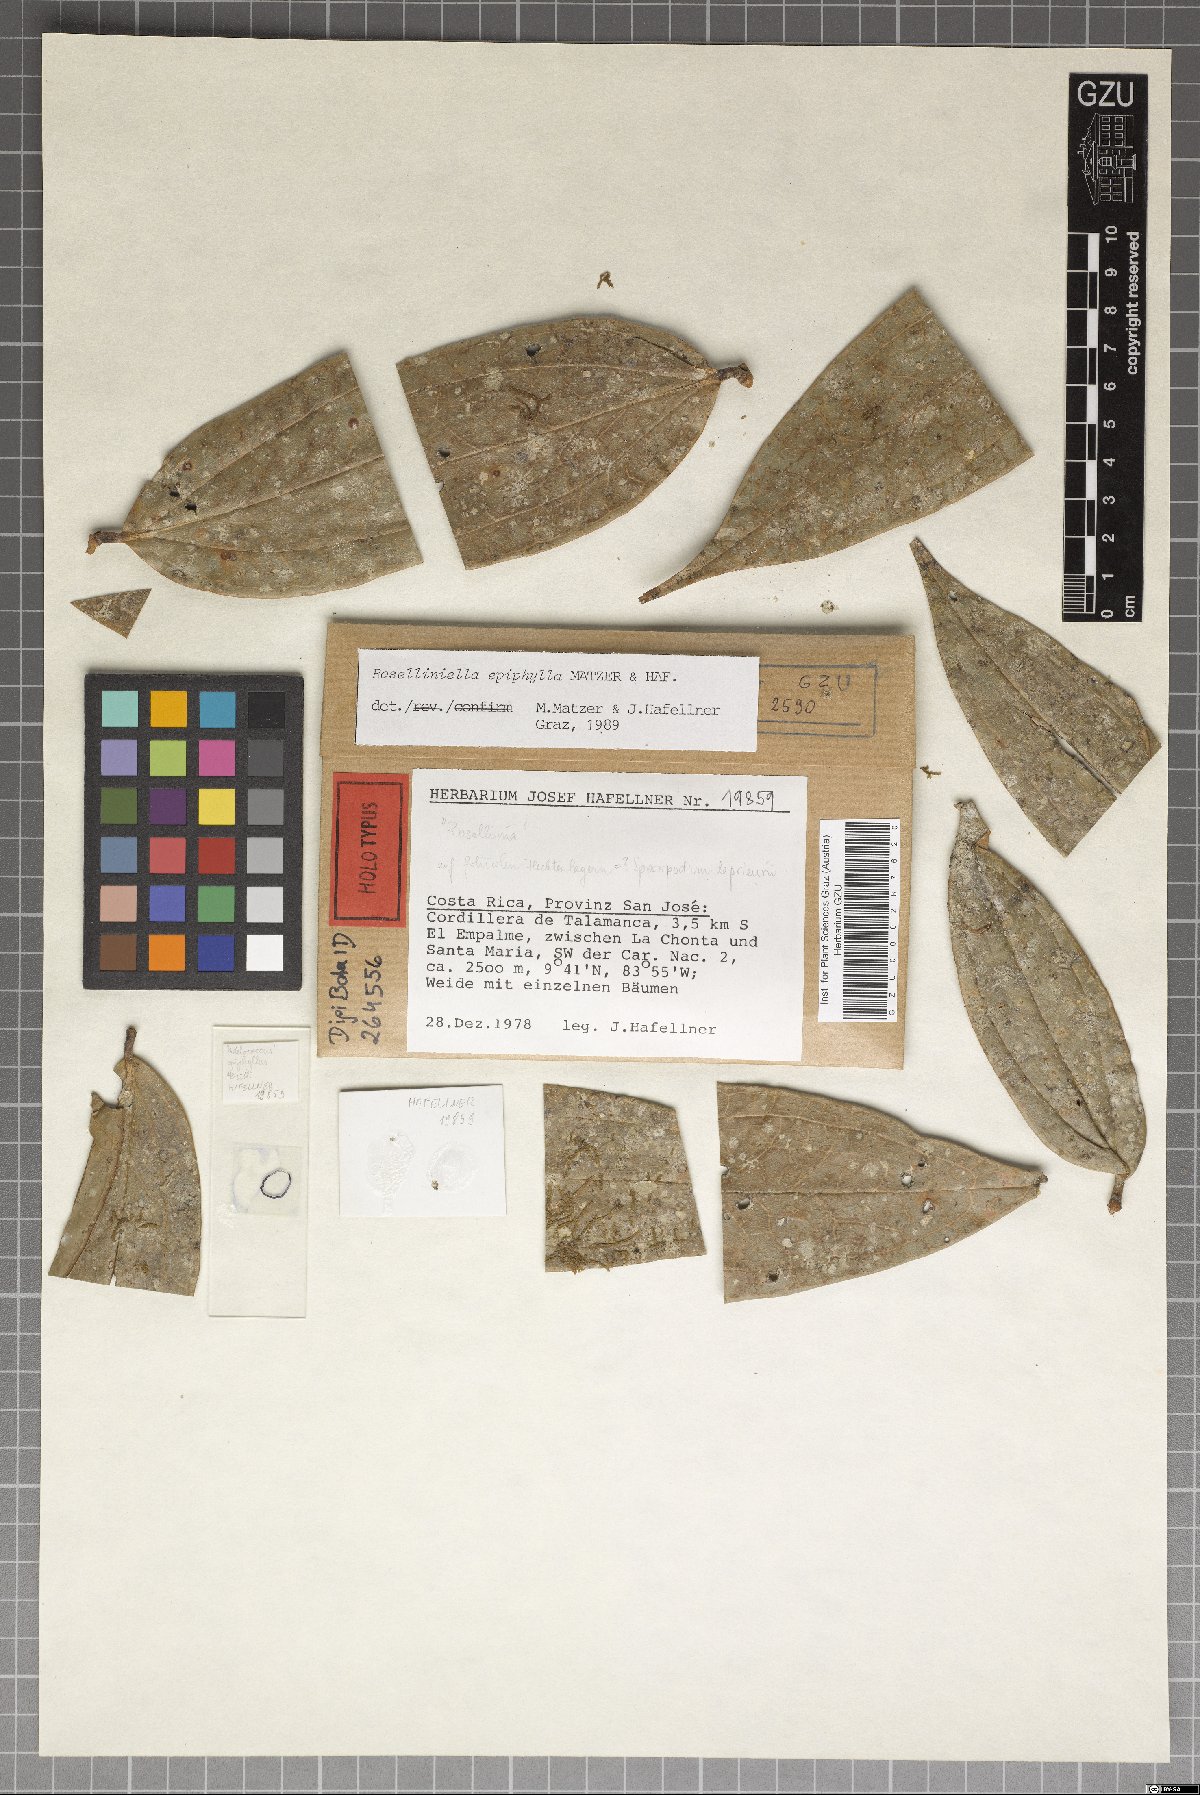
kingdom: Fungi
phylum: Ascomycota
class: Sordariomycetes
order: Sordariales
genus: Roselliniella
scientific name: Roselliniella epiphylla
